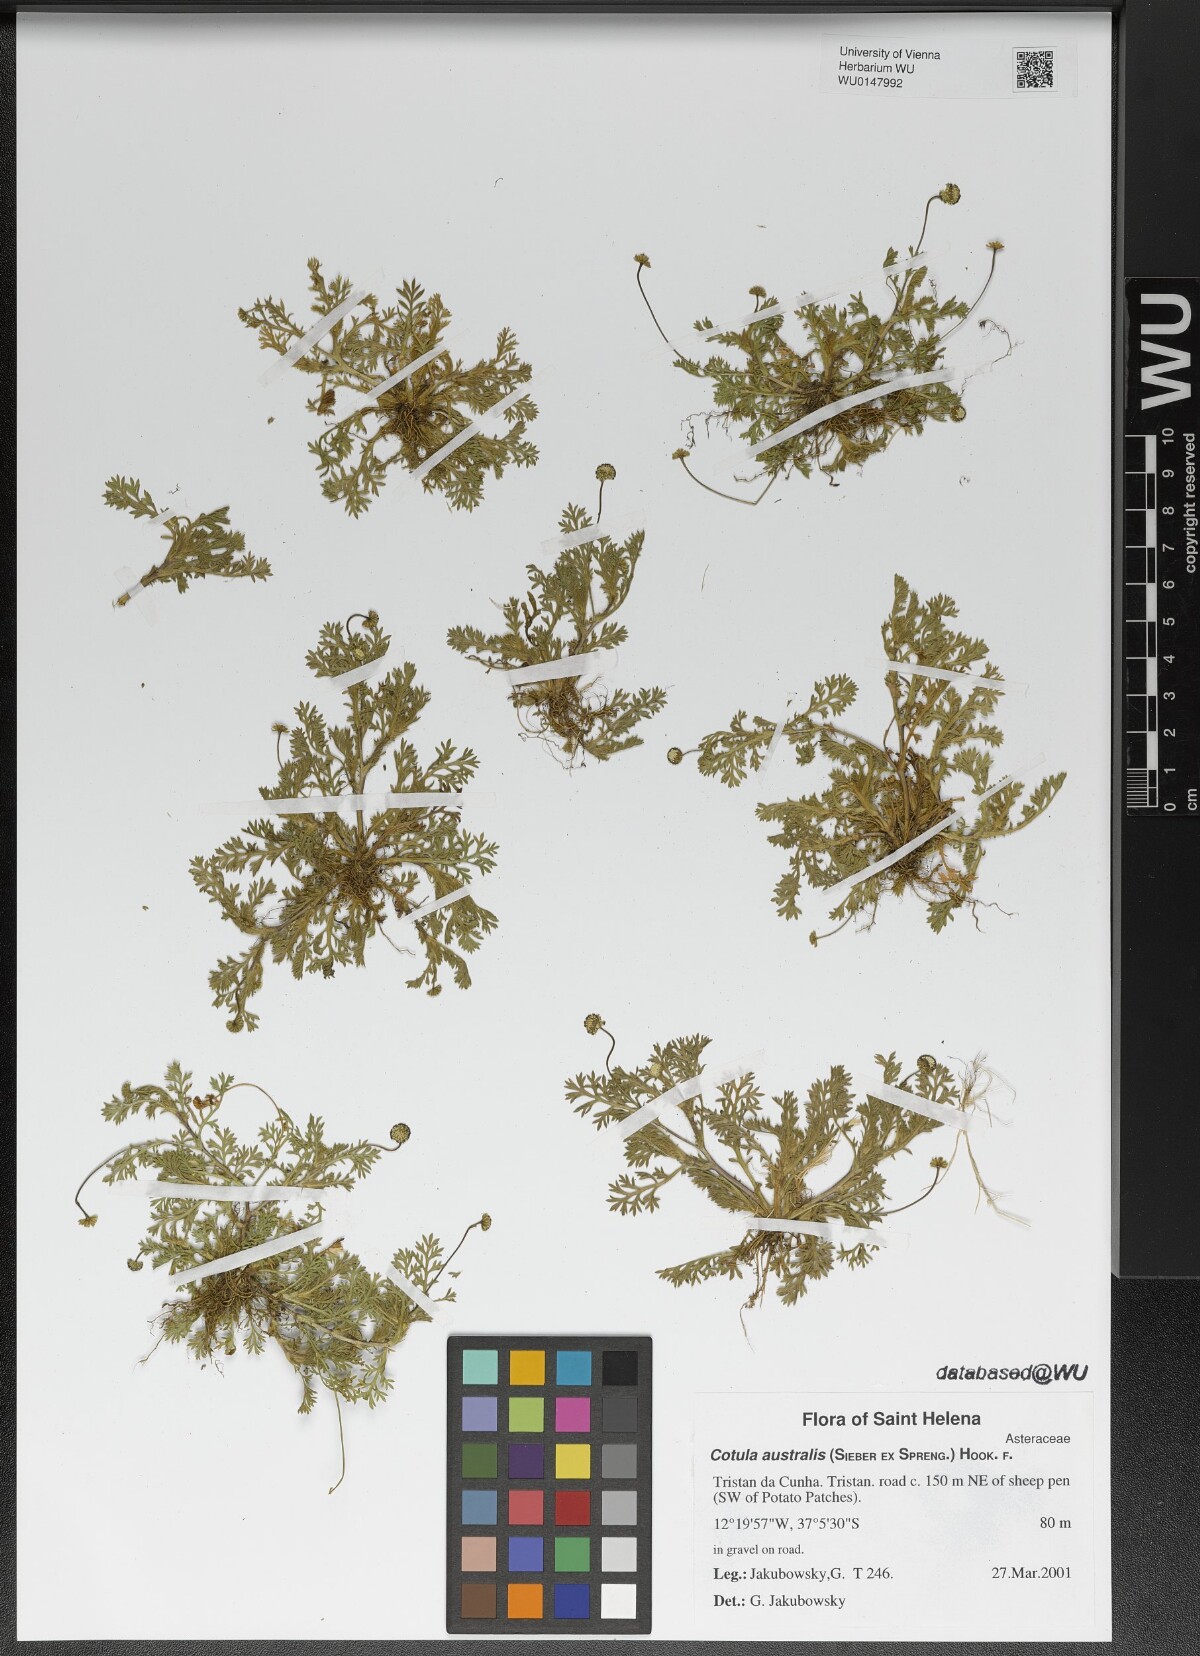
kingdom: Plantae
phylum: Tracheophyta
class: Magnoliopsida
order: Asterales
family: Asteraceae
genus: Cotula
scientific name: Cotula australis
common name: Australian waterbuttons
